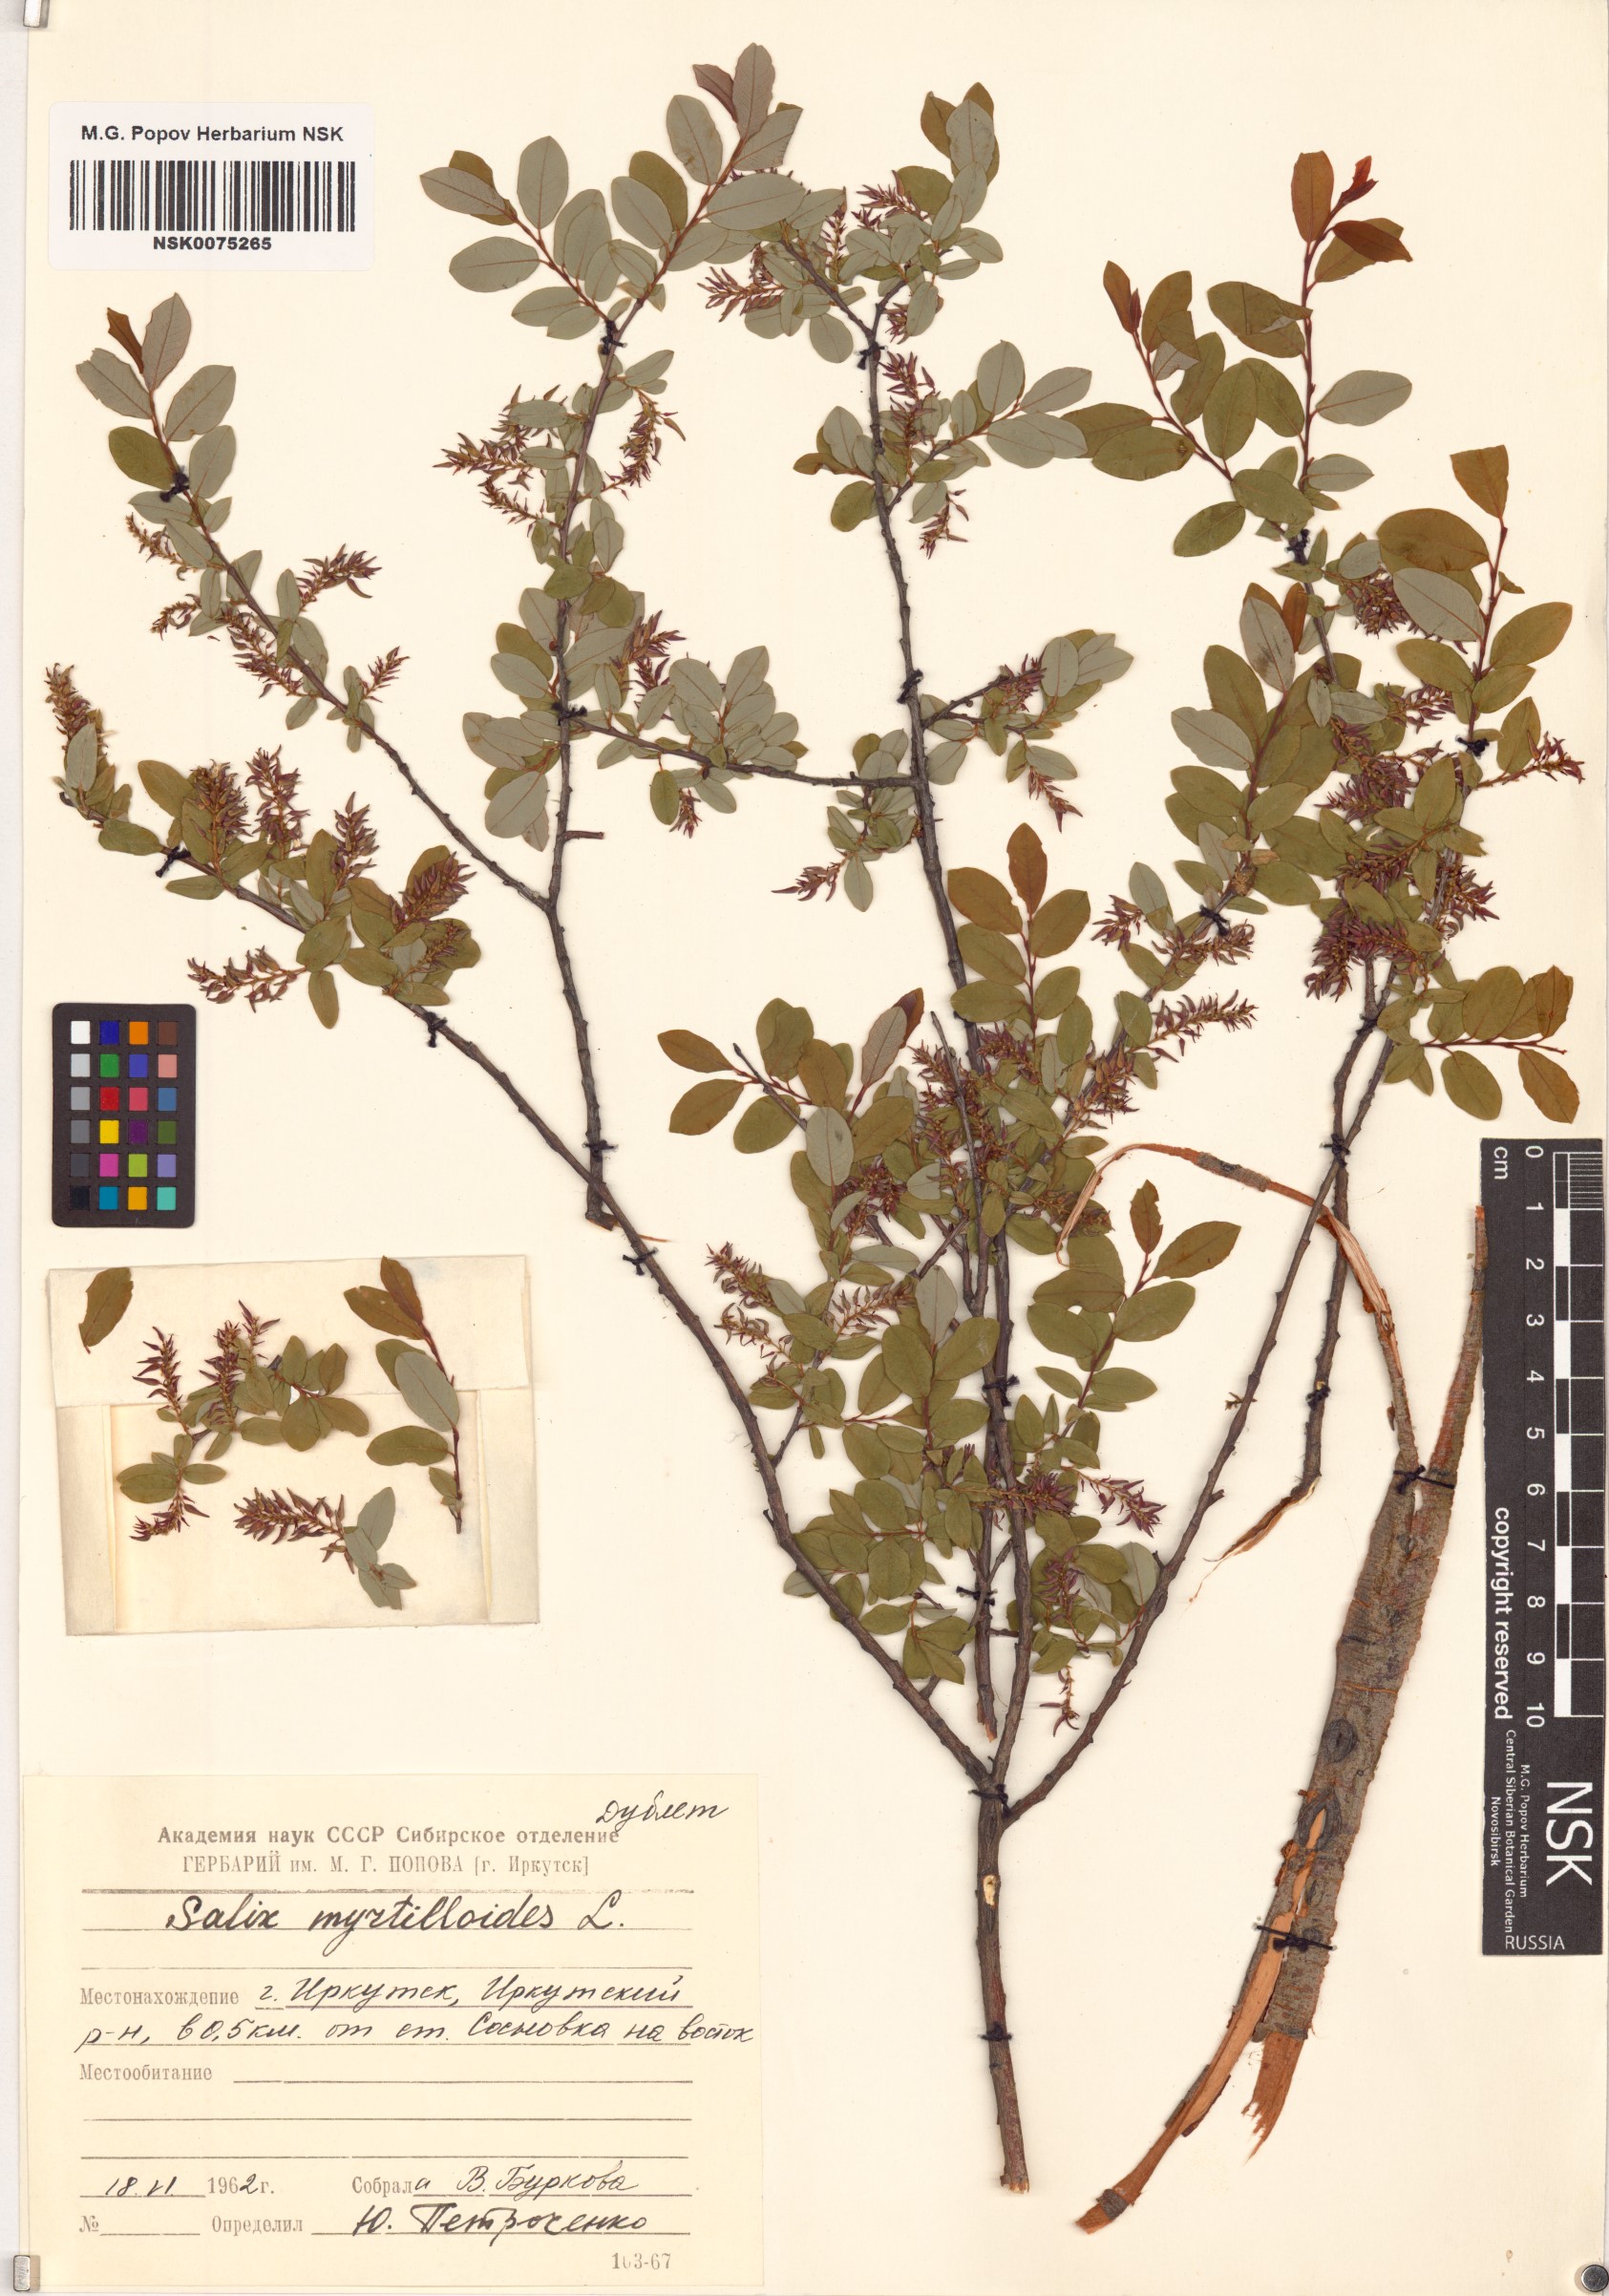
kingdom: Plantae
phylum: Tracheophyta
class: Magnoliopsida
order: Malpighiales
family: Salicaceae
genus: Salix
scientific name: Salix myrtilloides
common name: Myrtle-leaved willow
